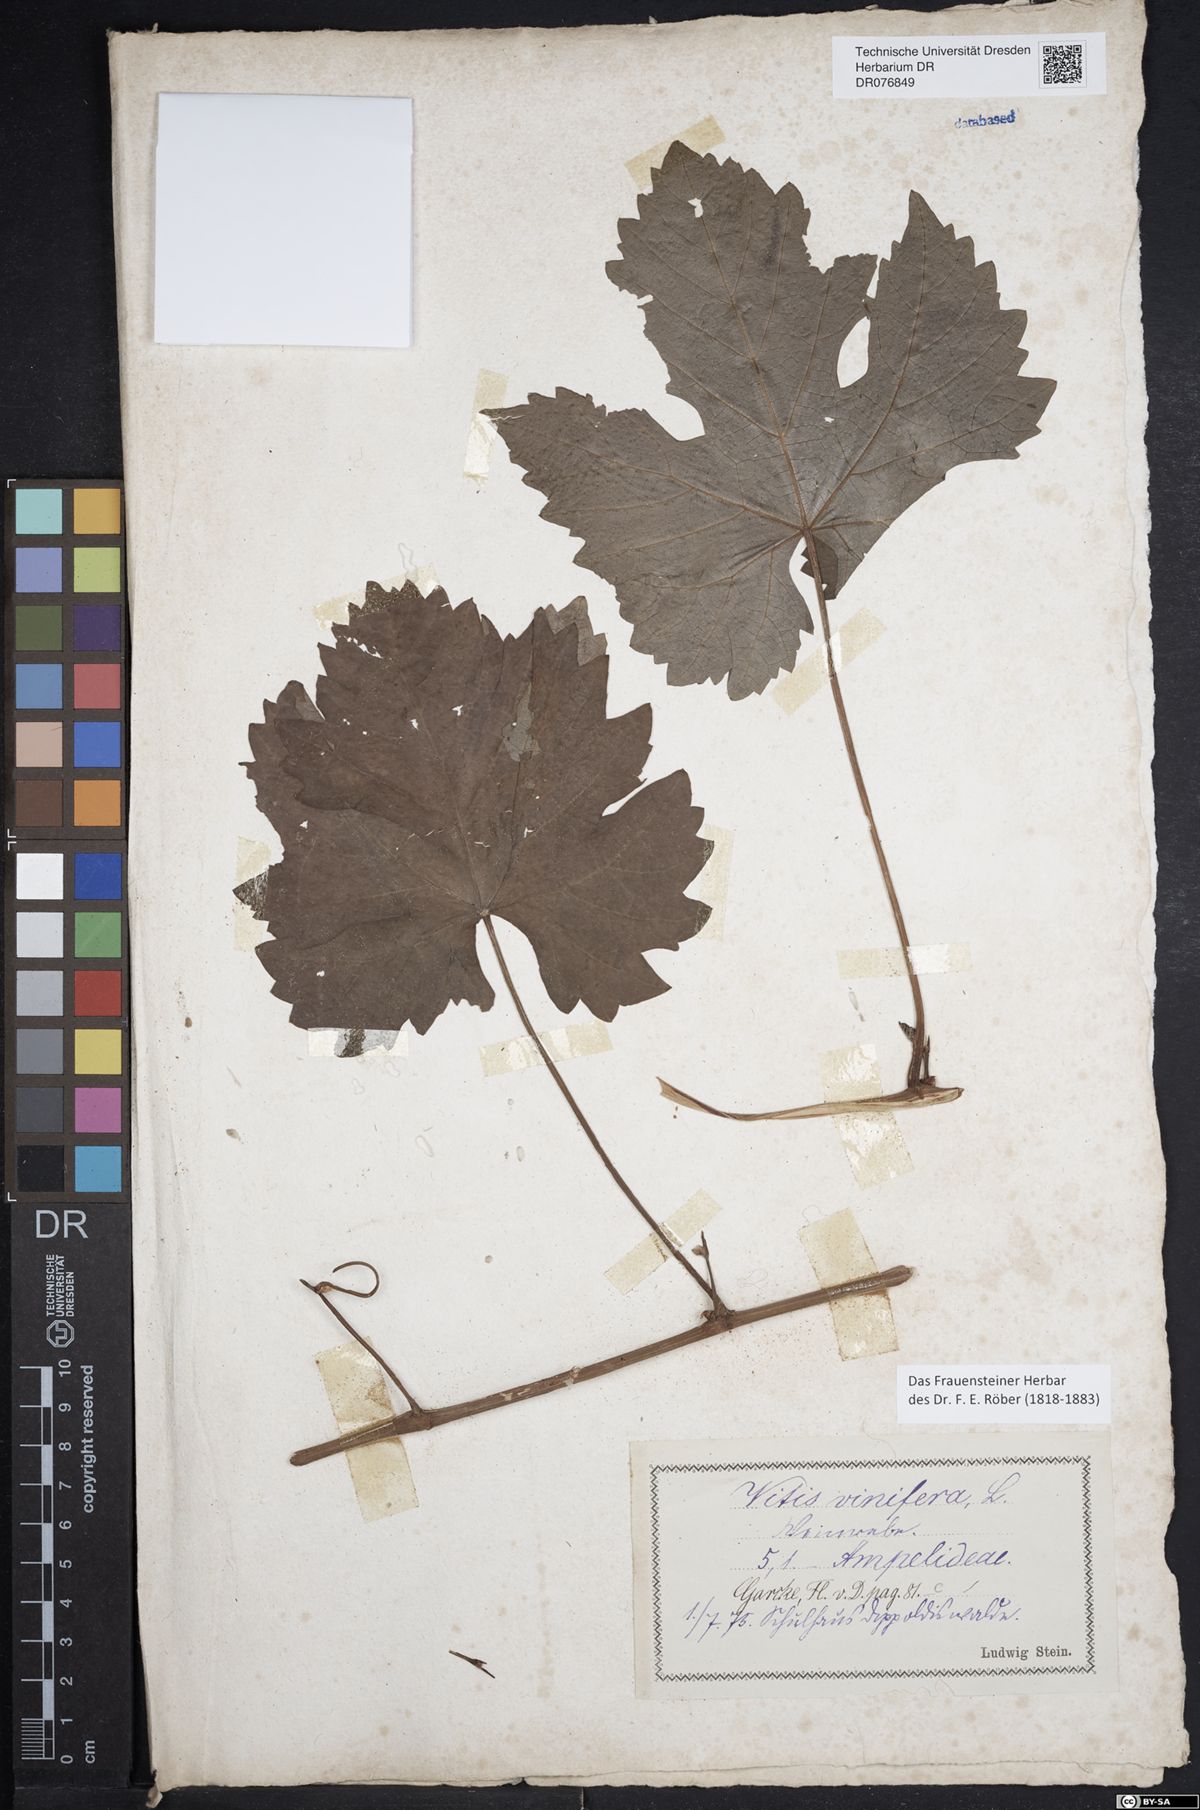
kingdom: Plantae
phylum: Tracheophyta
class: Magnoliopsida
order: Vitales
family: Vitaceae
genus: Vitis
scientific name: Vitis vinifera
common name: Grape-vine
